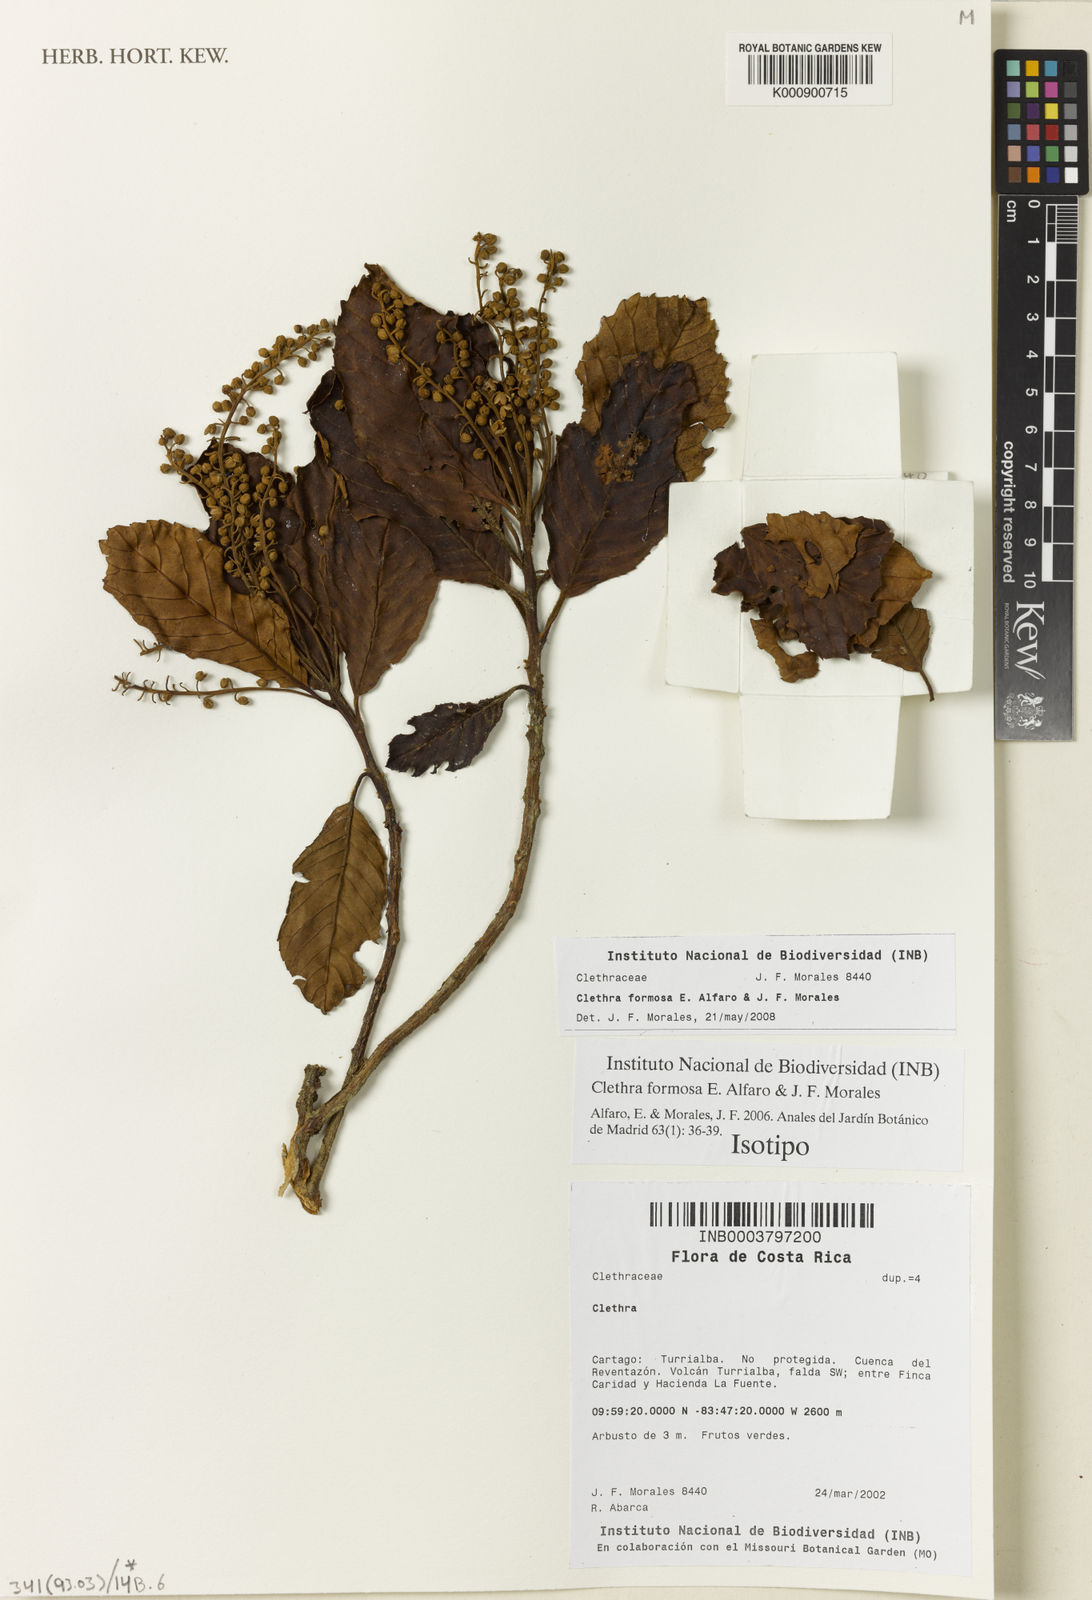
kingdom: Plantae
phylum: Tracheophyta
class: Magnoliopsida
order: Ericales
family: Clethraceae
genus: Clethra
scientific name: Clethra formosa
